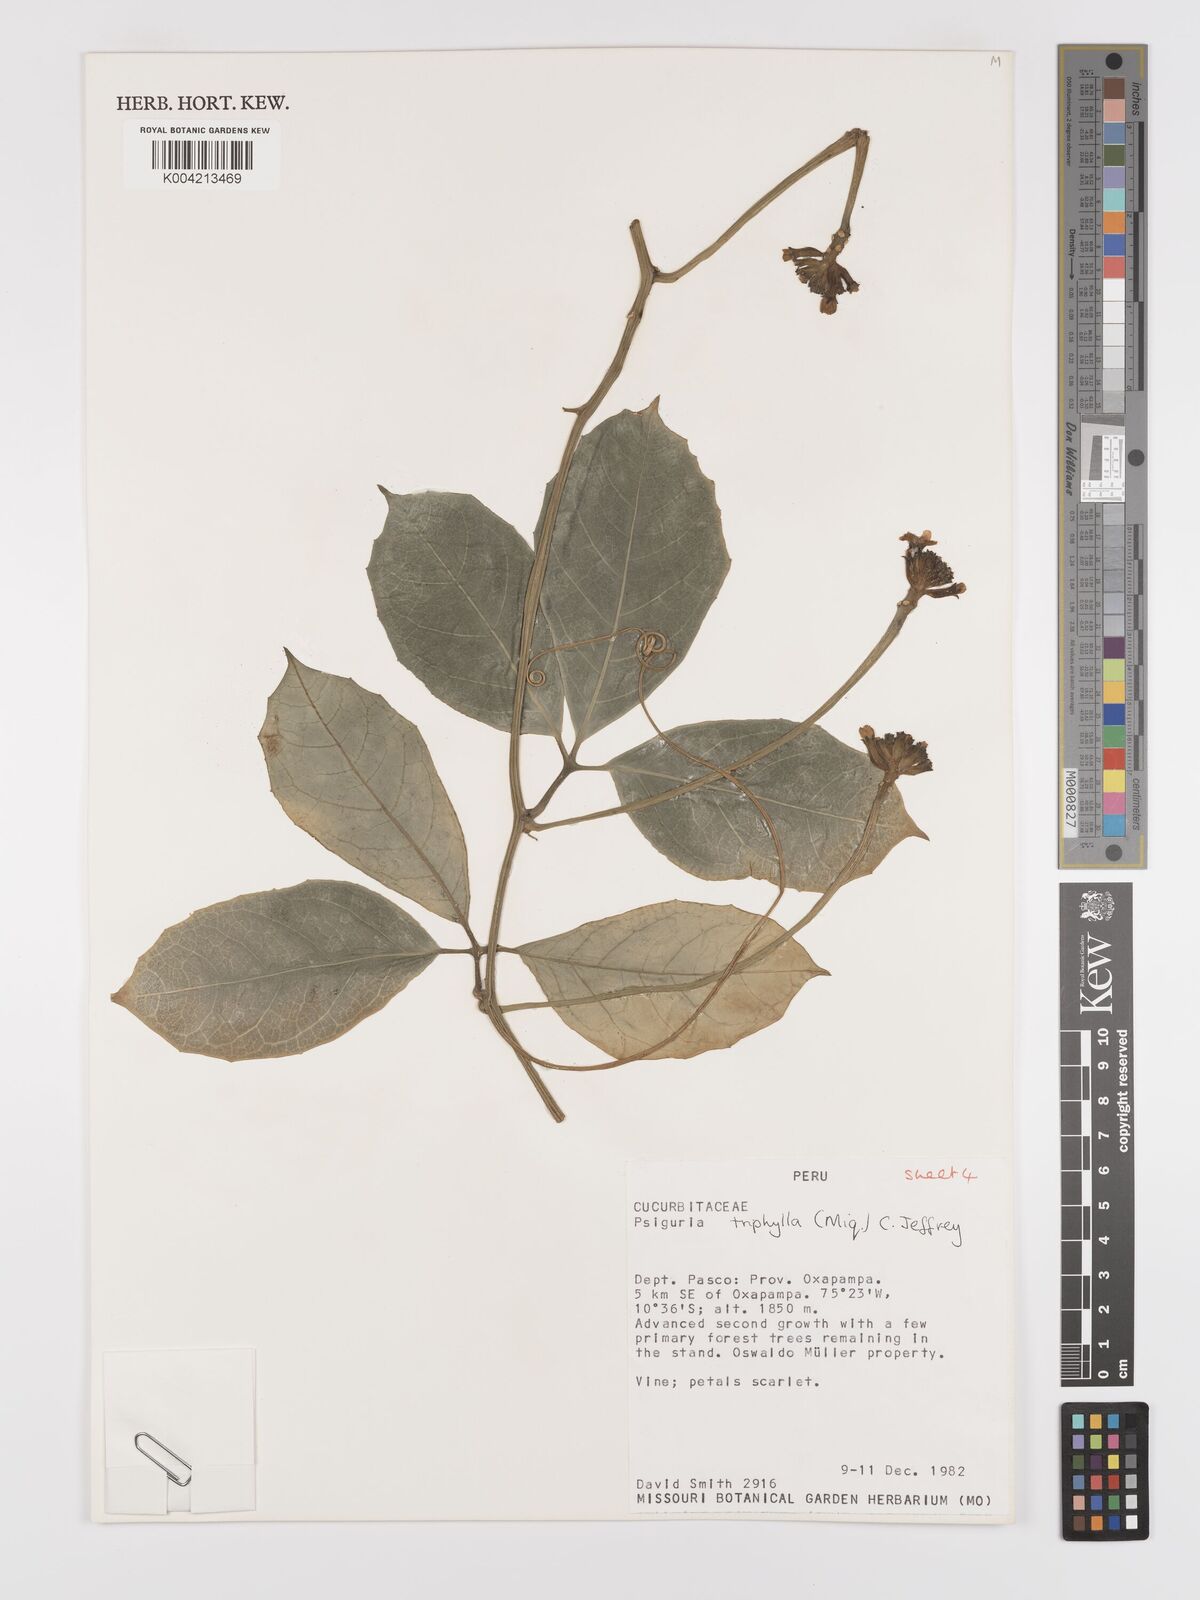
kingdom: Plantae
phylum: Tracheophyta
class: Magnoliopsida
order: Cucurbitales
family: Cucurbitaceae
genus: Psiguria
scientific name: Psiguria triphylla
